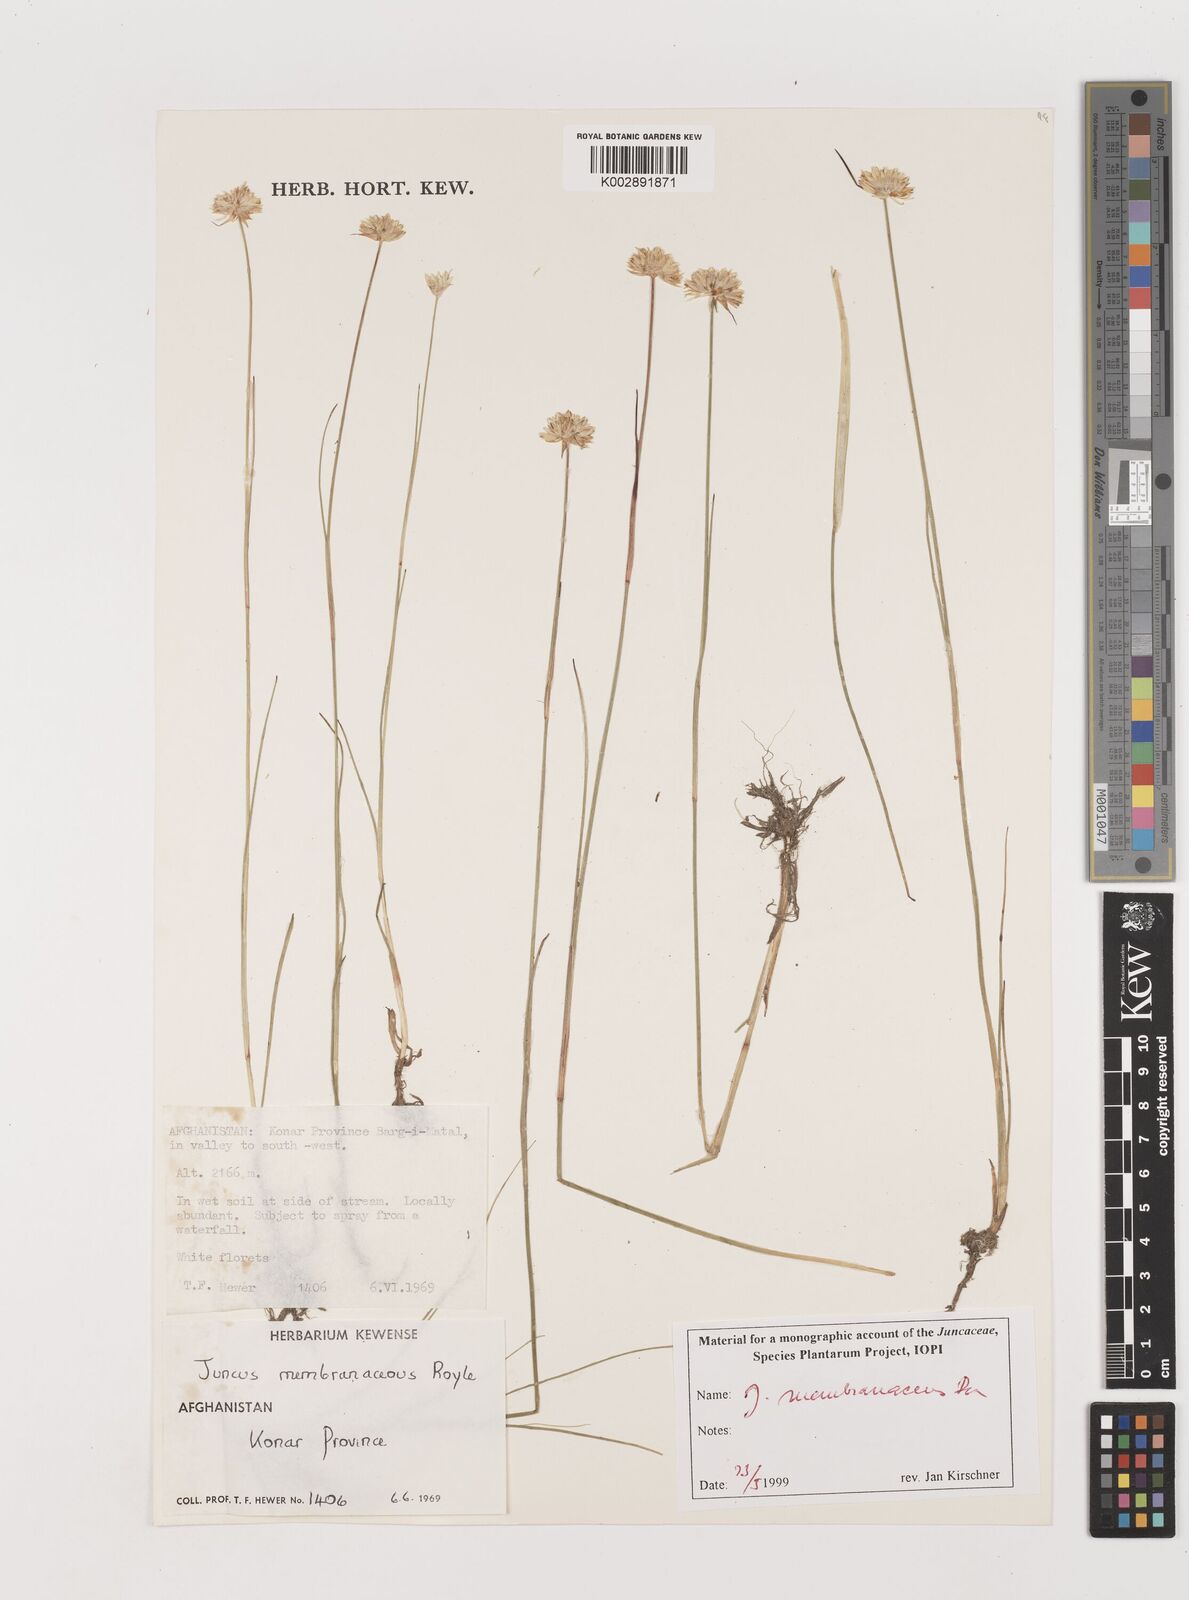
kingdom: Plantae
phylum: Tracheophyta
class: Liliopsida
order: Poales
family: Juncaceae
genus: Juncus
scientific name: Juncus membranaceus
